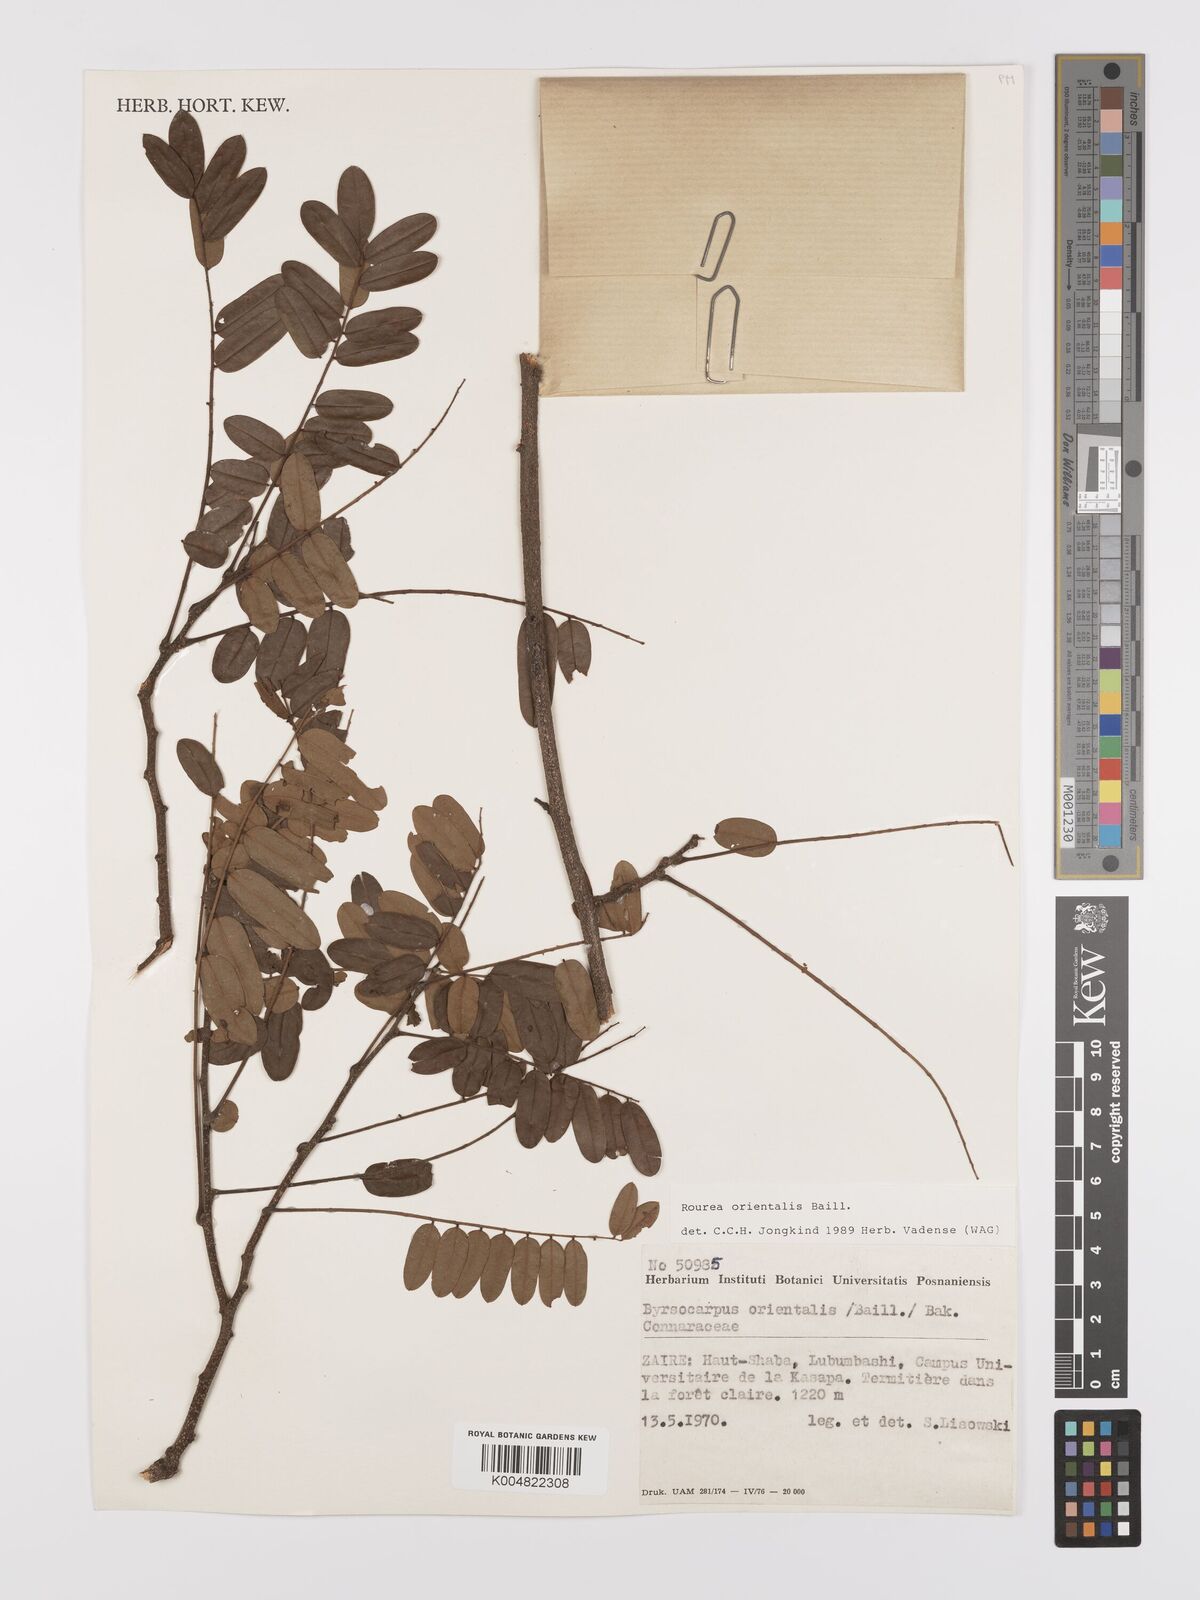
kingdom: Plantae
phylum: Tracheophyta
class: Magnoliopsida
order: Oxalidales
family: Connaraceae
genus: Rourea
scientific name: Rourea orientalis
